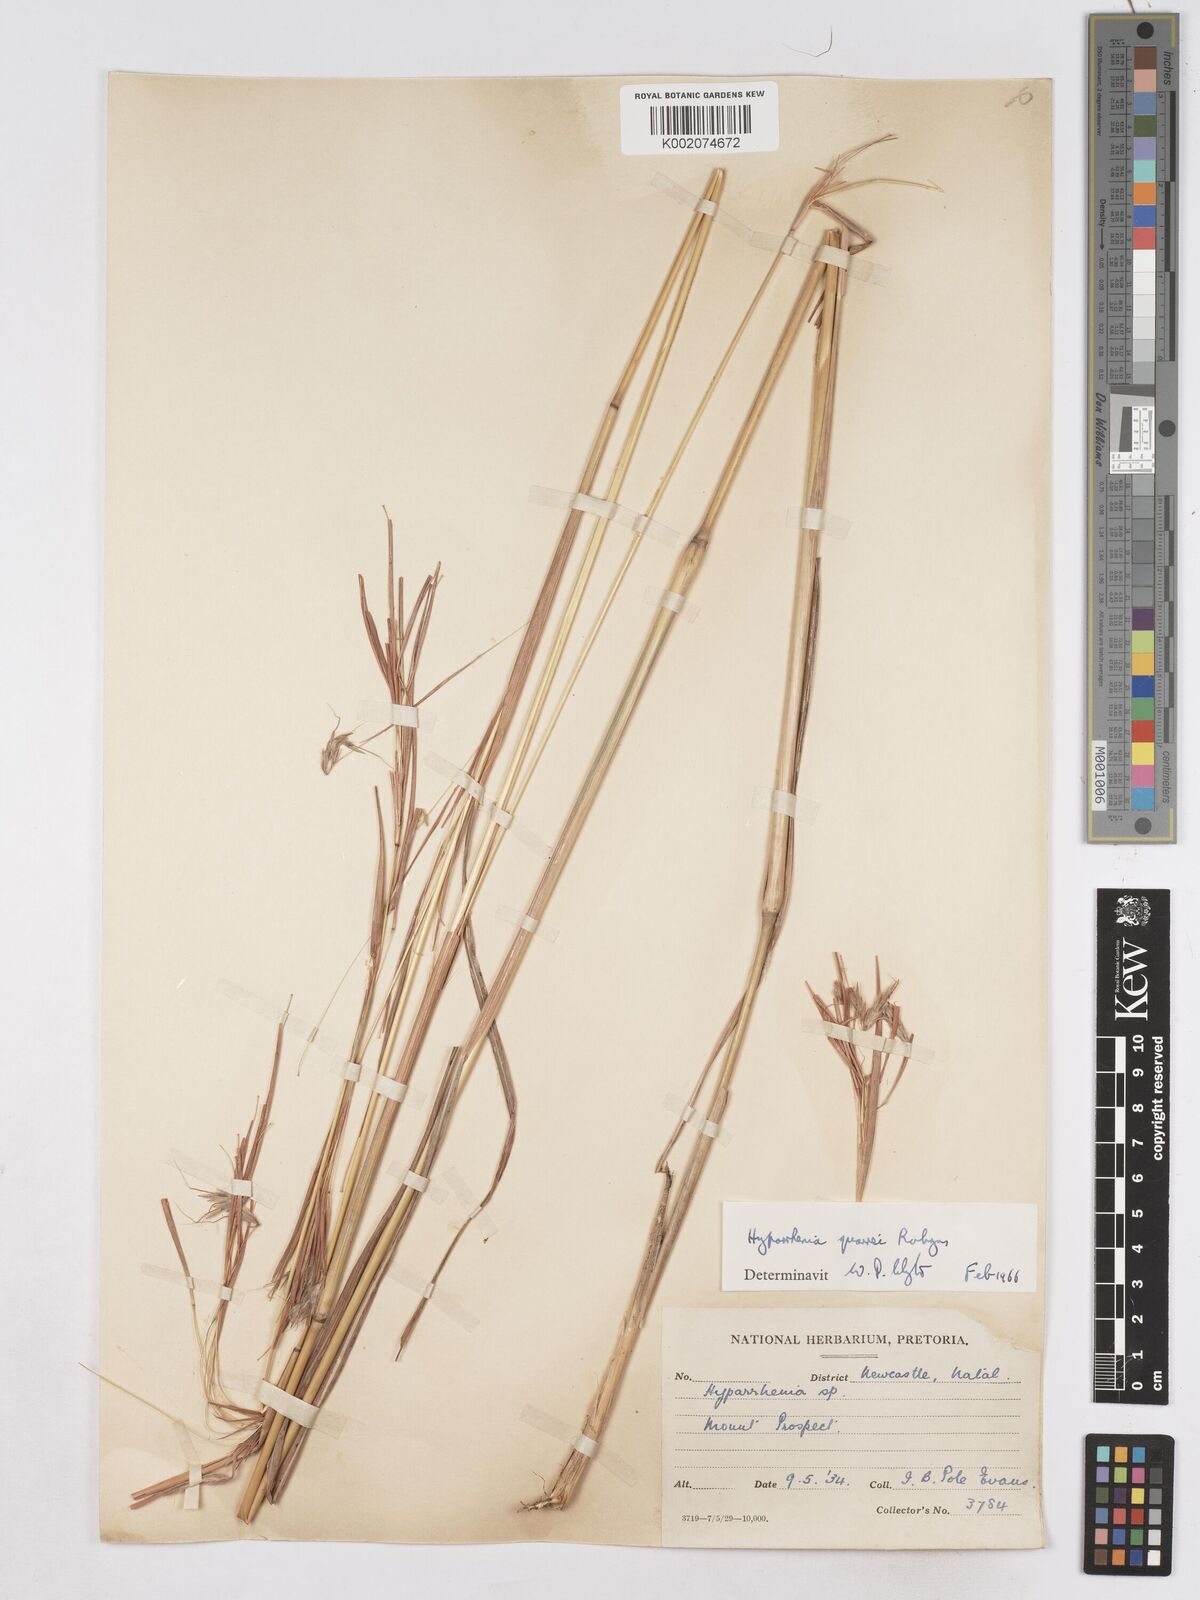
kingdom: Plantae
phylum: Tracheophyta
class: Liliopsida
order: Poales
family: Poaceae
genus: Hyparrhenia
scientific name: Hyparrhenia quarrei
